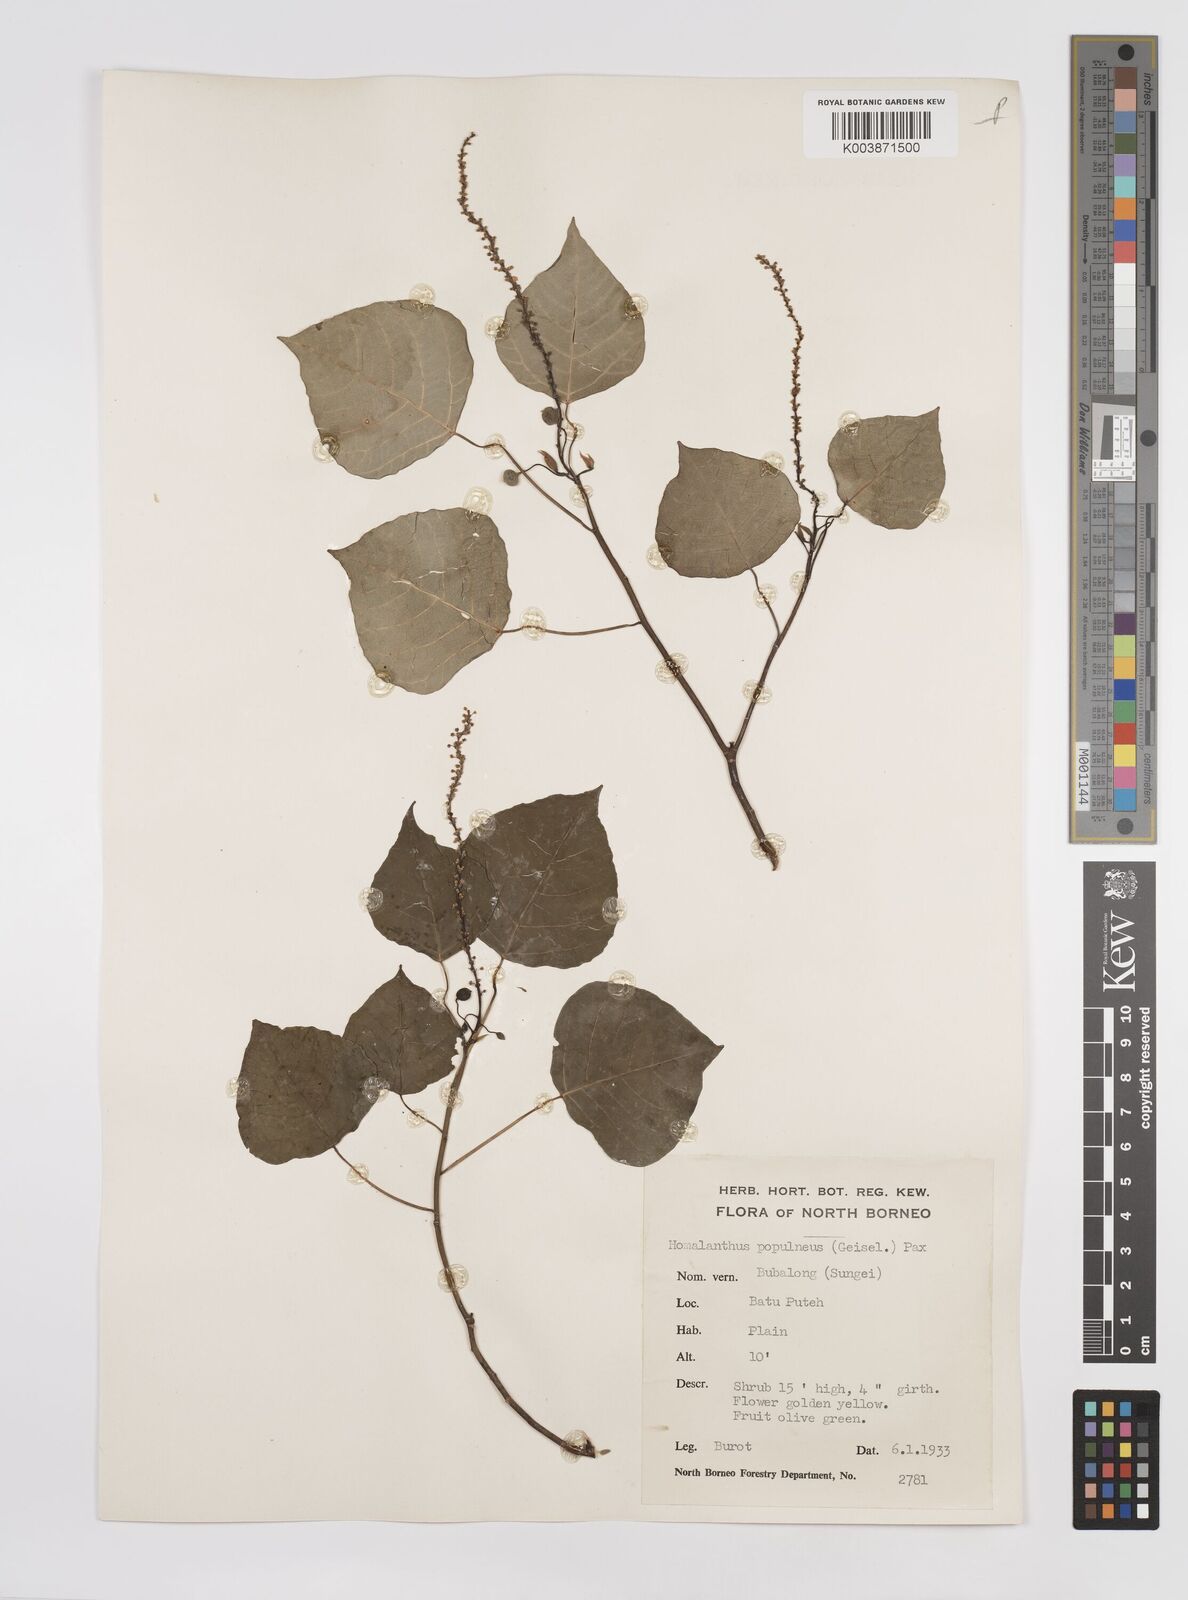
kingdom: Plantae
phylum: Tracheophyta
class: Magnoliopsida
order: Malpighiales
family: Euphorbiaceae
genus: Homalanthus
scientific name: Homalanthus populneus
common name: Spurge
